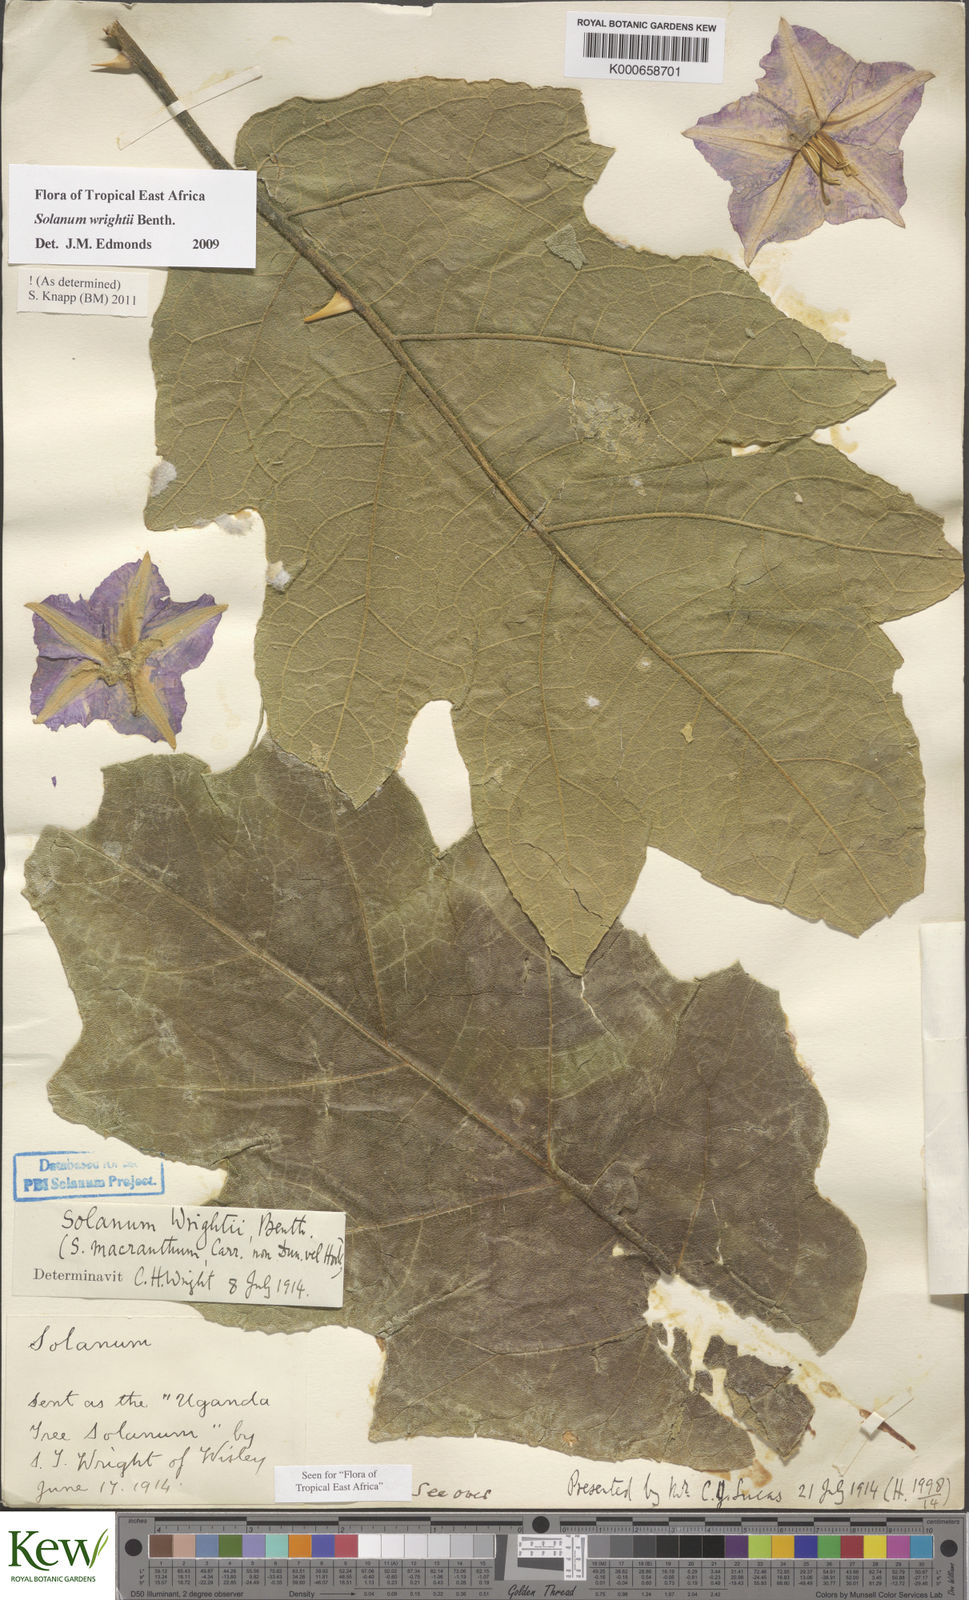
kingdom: Plantae
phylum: Tracheophyta
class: Magnoliopsida
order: Solanales
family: Solanaceae
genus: Solanum
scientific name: Solanum wrightii
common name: Brazilian potato-tree
